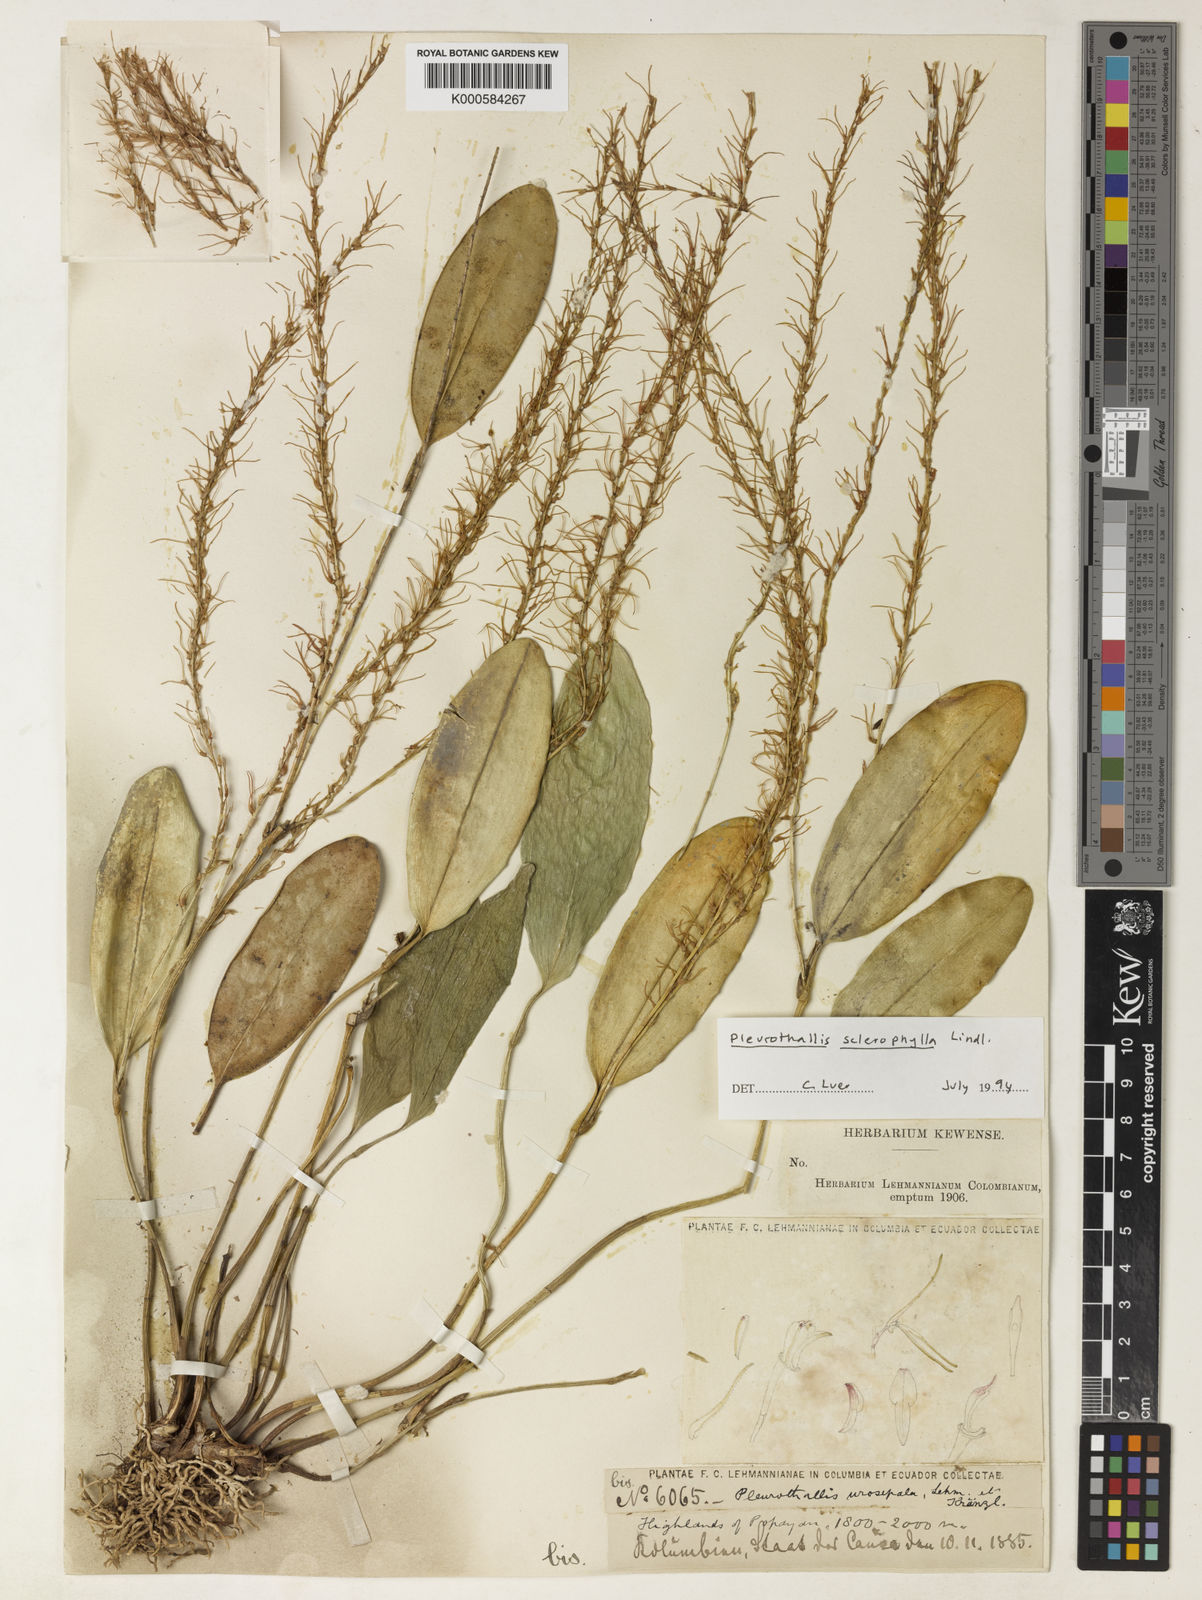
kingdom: Plantae
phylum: Tracheophyta
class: Liliopsida
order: Asparagales
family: Orchidaceae
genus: Stelis
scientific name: Stelis sclerophylla
